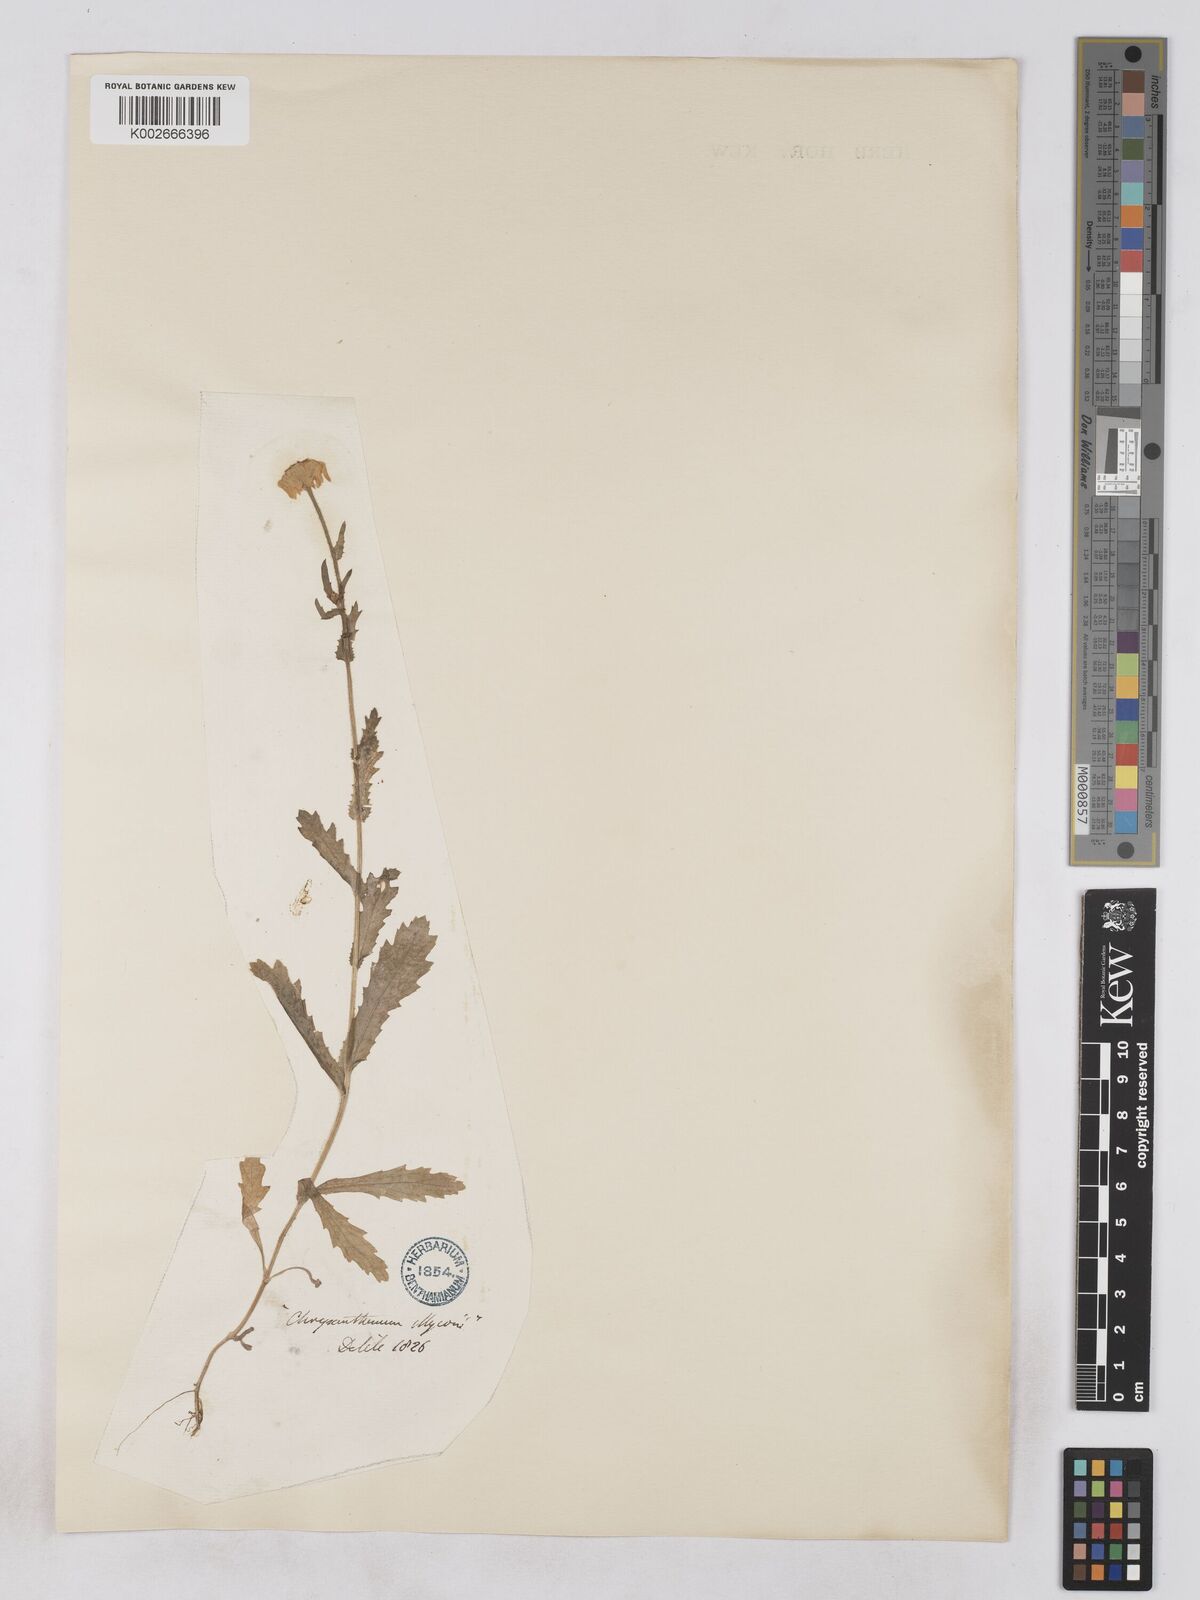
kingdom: Plantae
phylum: Tracheophyta
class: Magnoliopsida
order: Asterales
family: Asteraceae
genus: Heteranthemis
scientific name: Heteranthemis
